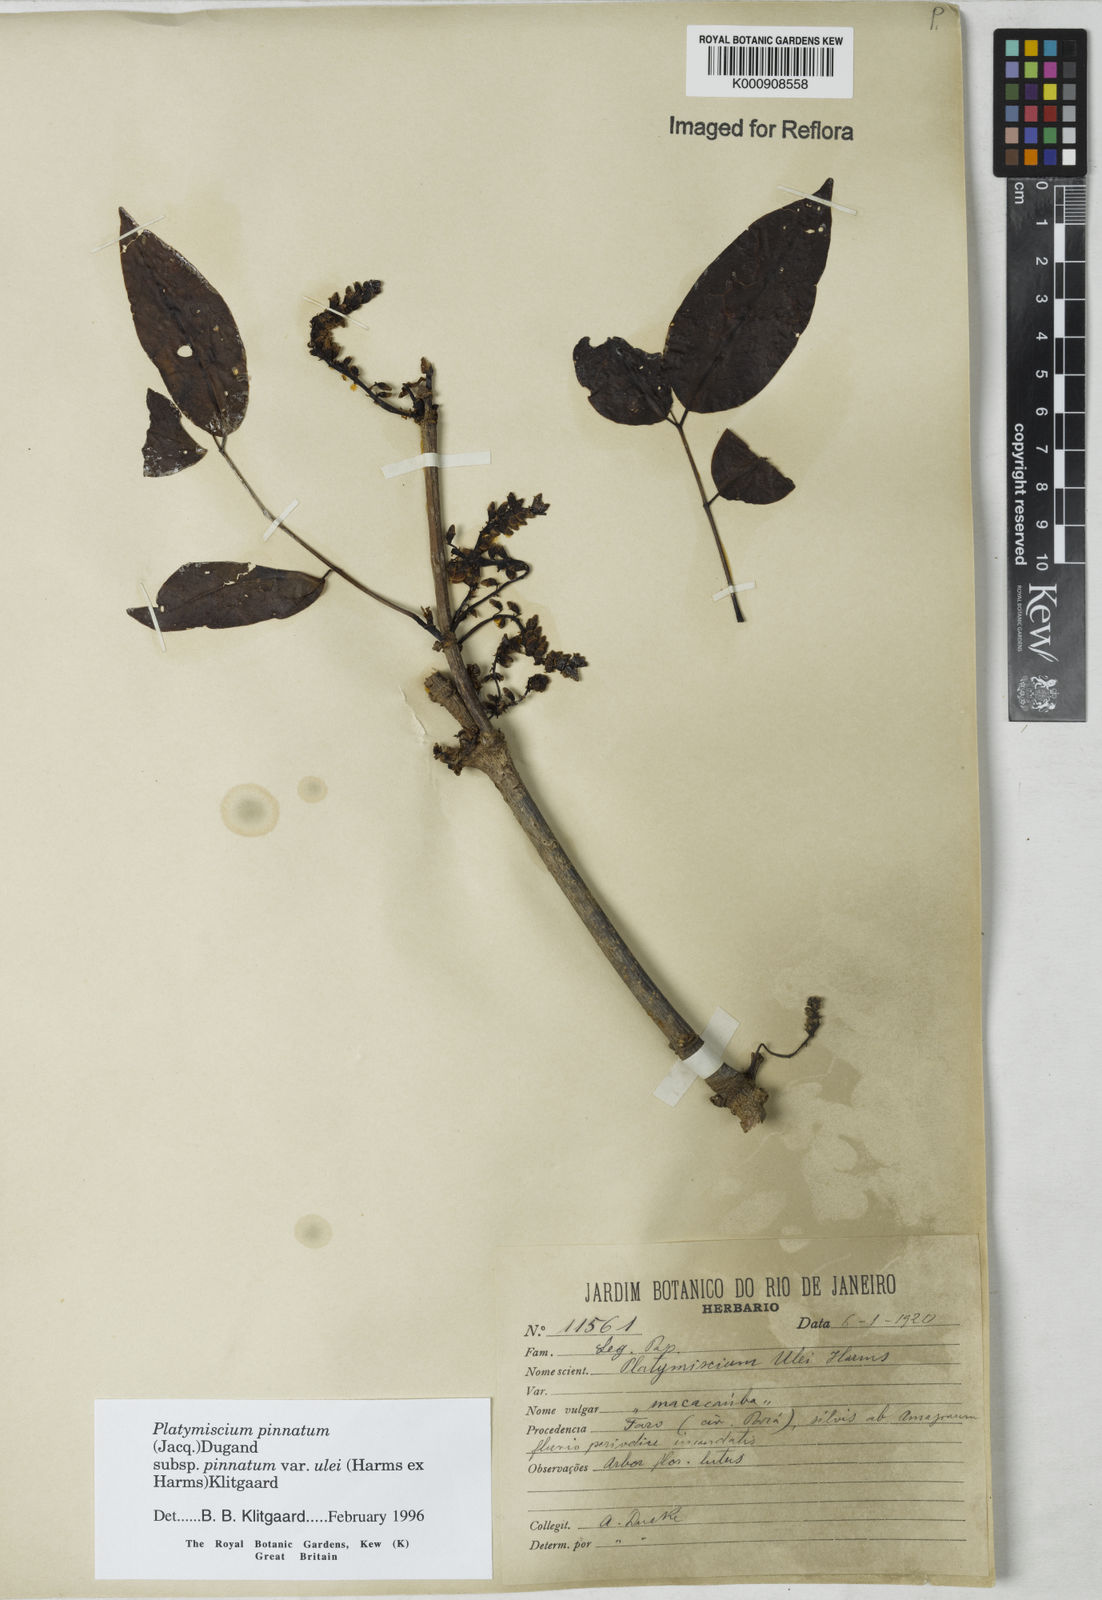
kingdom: Plantae
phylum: Tracheophyta
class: Magnoliopsida
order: Fabales
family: Fabaceae
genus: Platymiscium
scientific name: Platymiscium pinnatum
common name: Panama redwood
